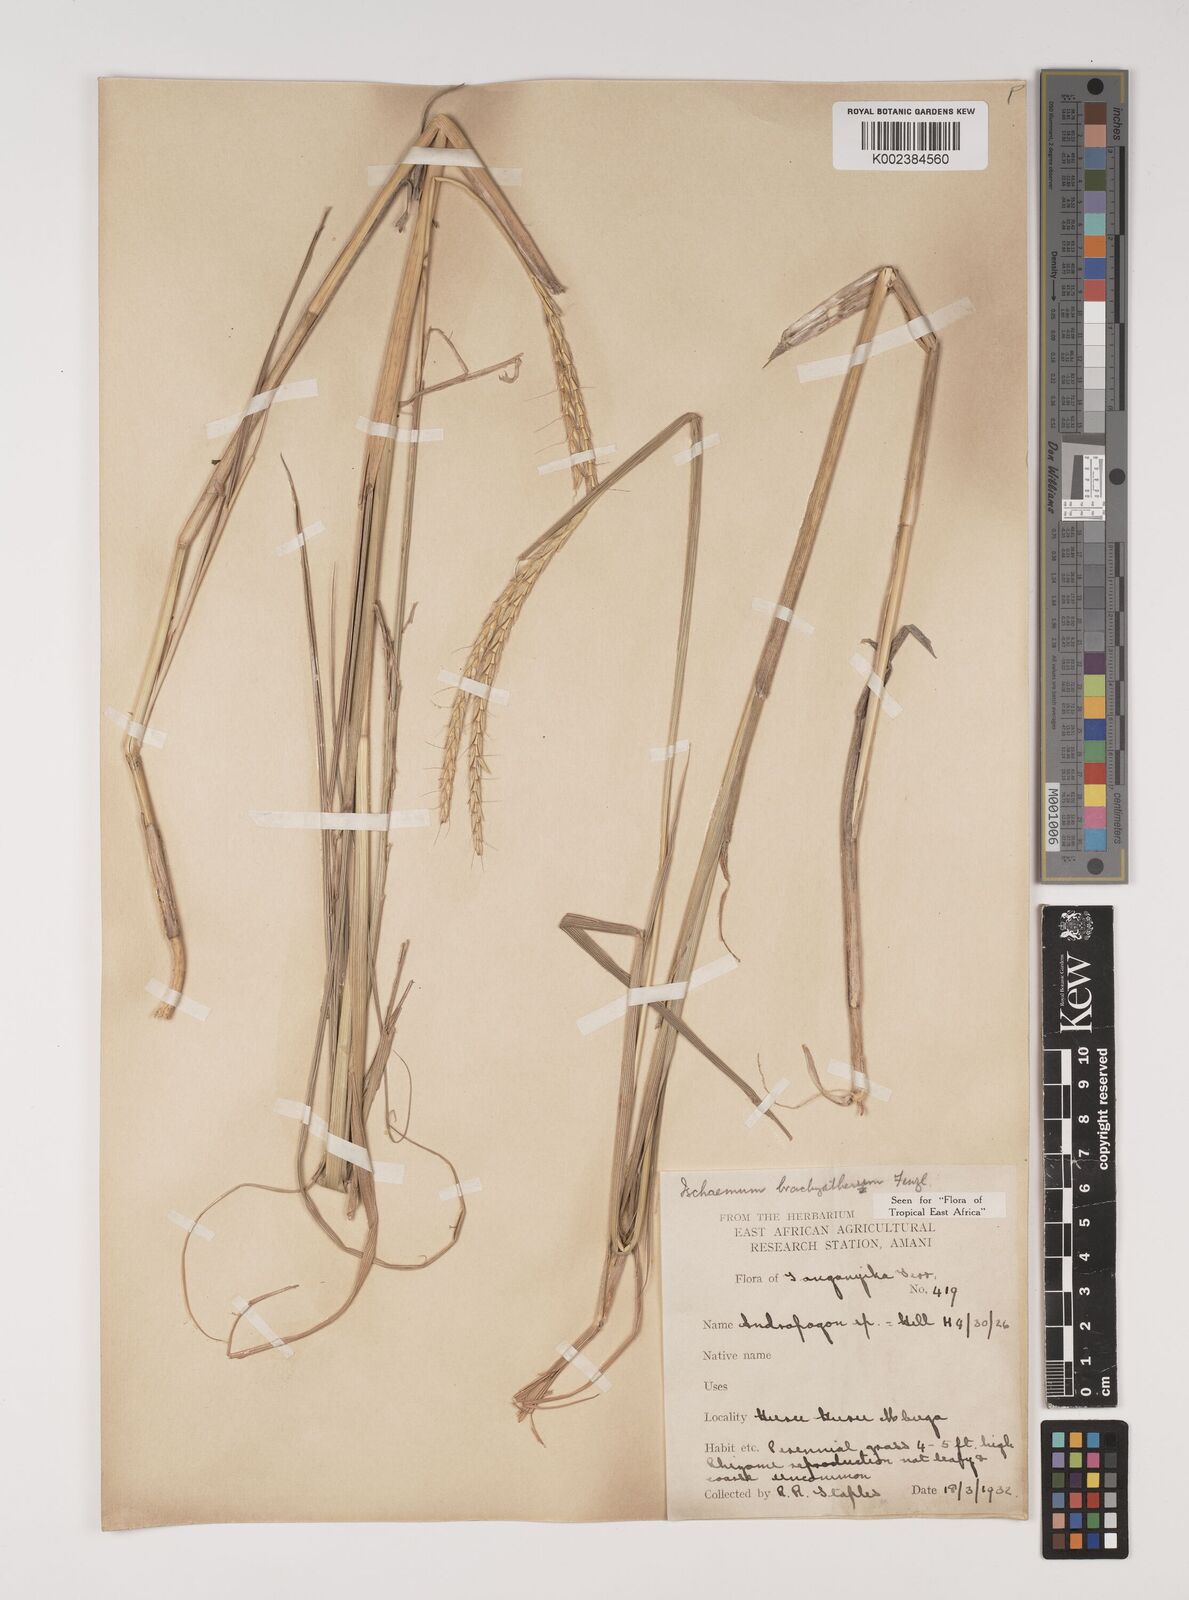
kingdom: Plantae
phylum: Tracheophyta
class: Liliopsida
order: Poales
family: Poaceae
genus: Ischaemum
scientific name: Ischaemum afrum
